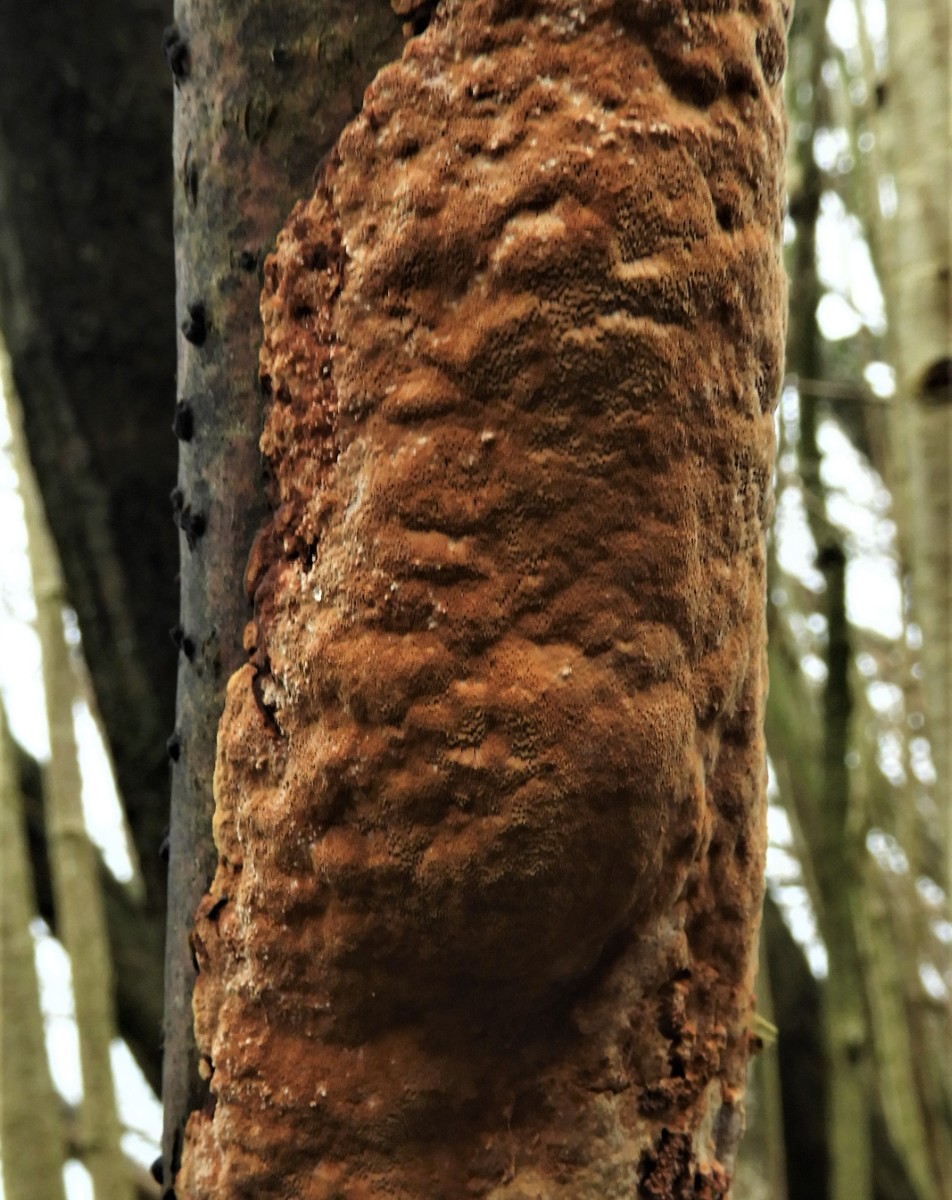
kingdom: Fungi
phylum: Basidiomycota
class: Agaricomycetes
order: Hymenochaetales
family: Hymenochaetaceae
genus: Fuscoporia
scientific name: Fuscoporia ferrea
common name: skorpe-ildporesvamp
